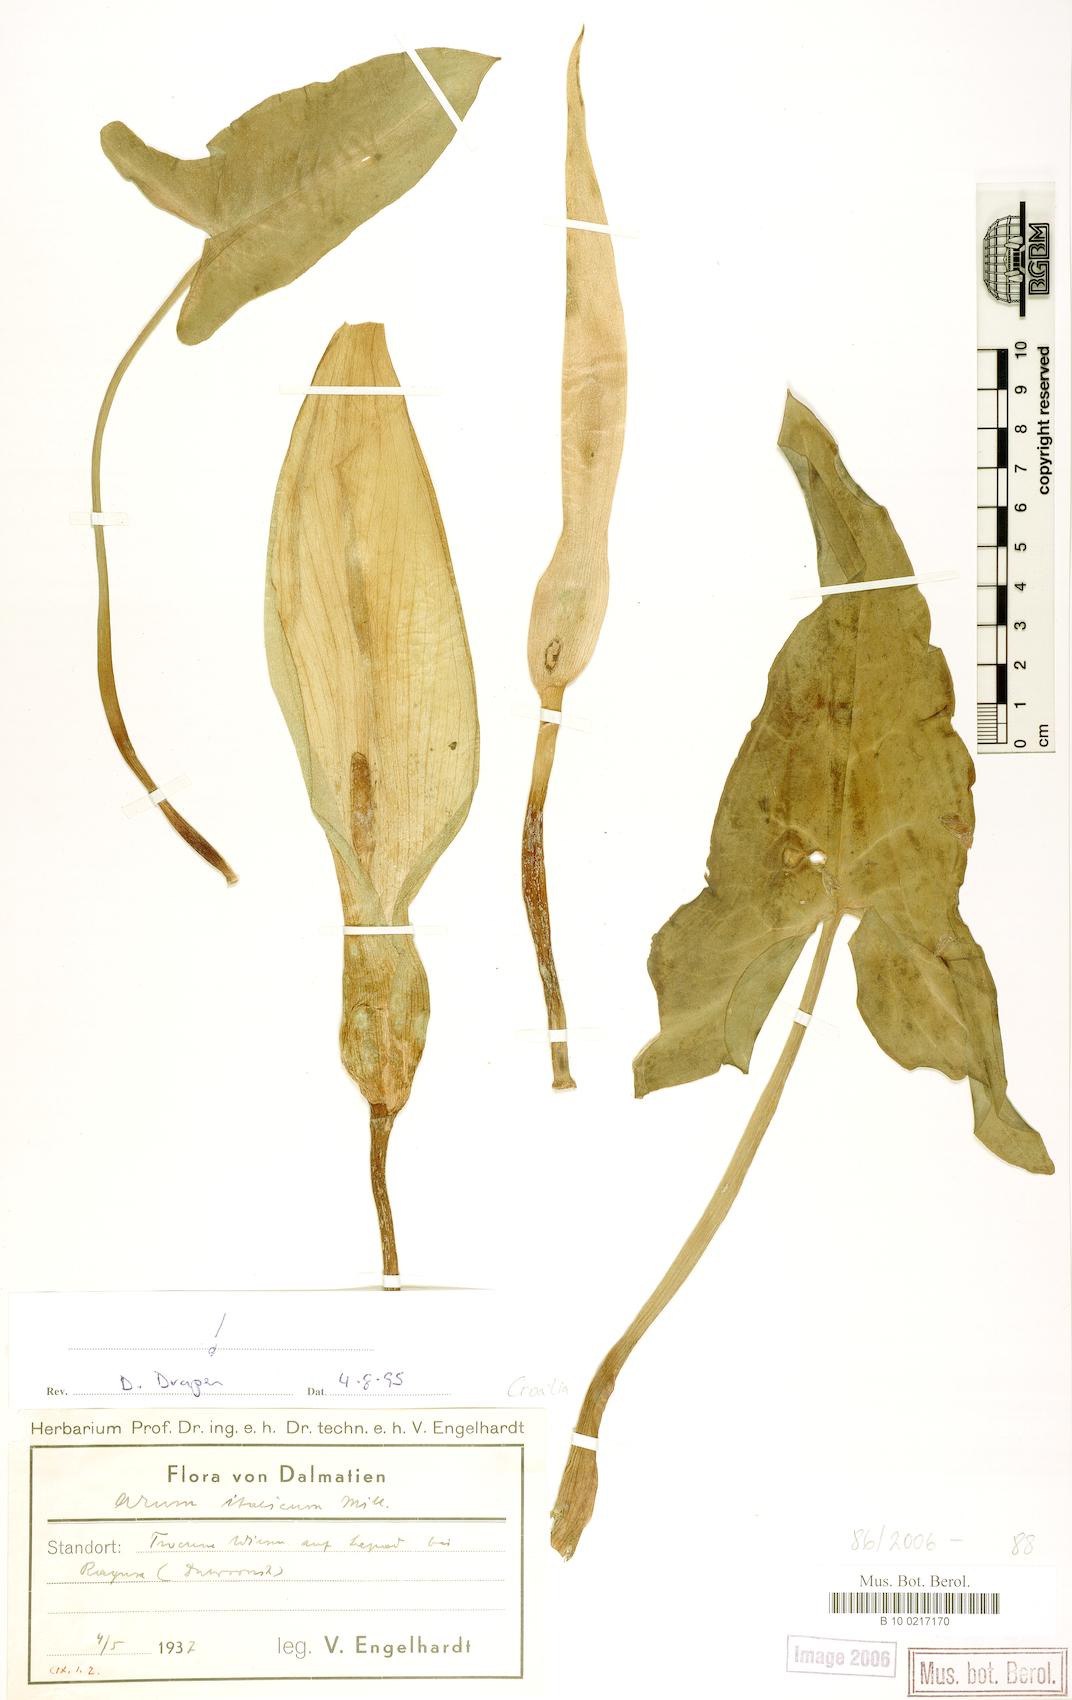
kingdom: Plantae
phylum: Tracheophyta
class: Liliopsida
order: Alismatales
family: Araceae
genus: Arum
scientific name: Arum italicum
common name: Italian lords-and-ladies
